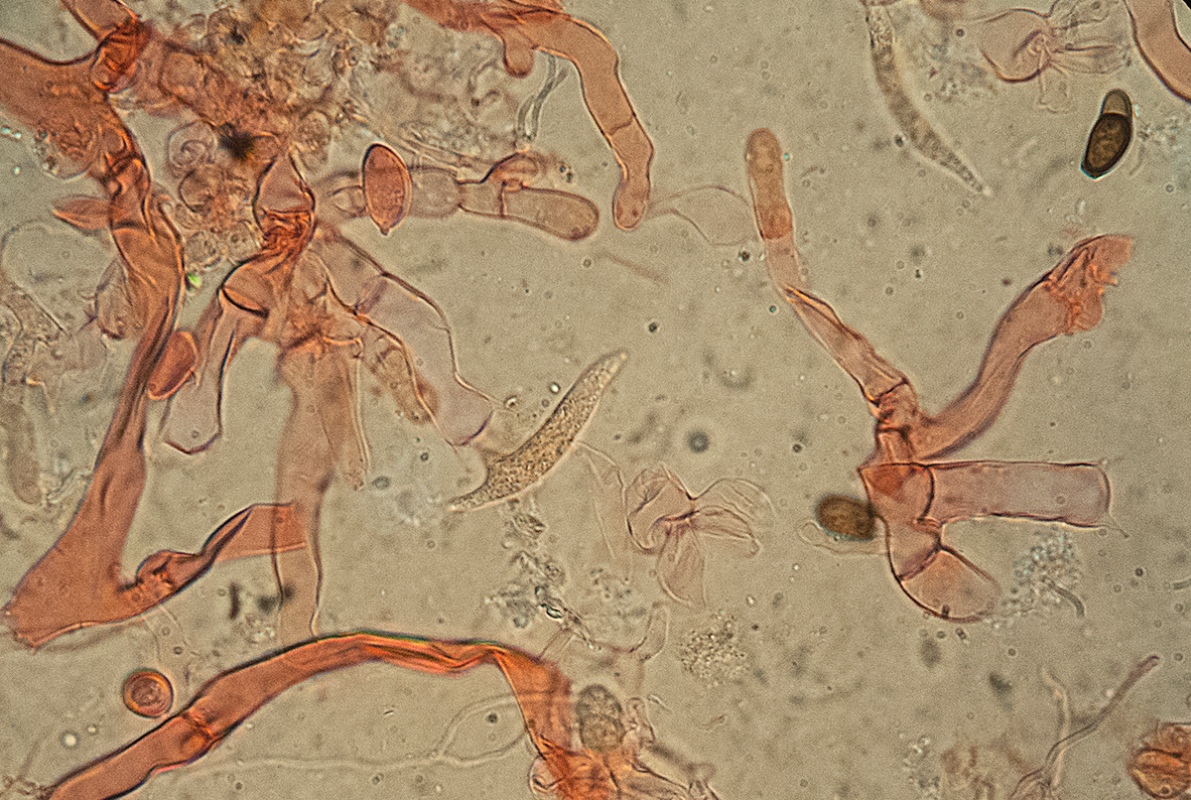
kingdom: Fungi
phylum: Basidiomycota
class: Agaricomycetes
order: Cantharellales
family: Tulasnellaceae
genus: Tulasnella
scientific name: Tulasnella deliquescens
